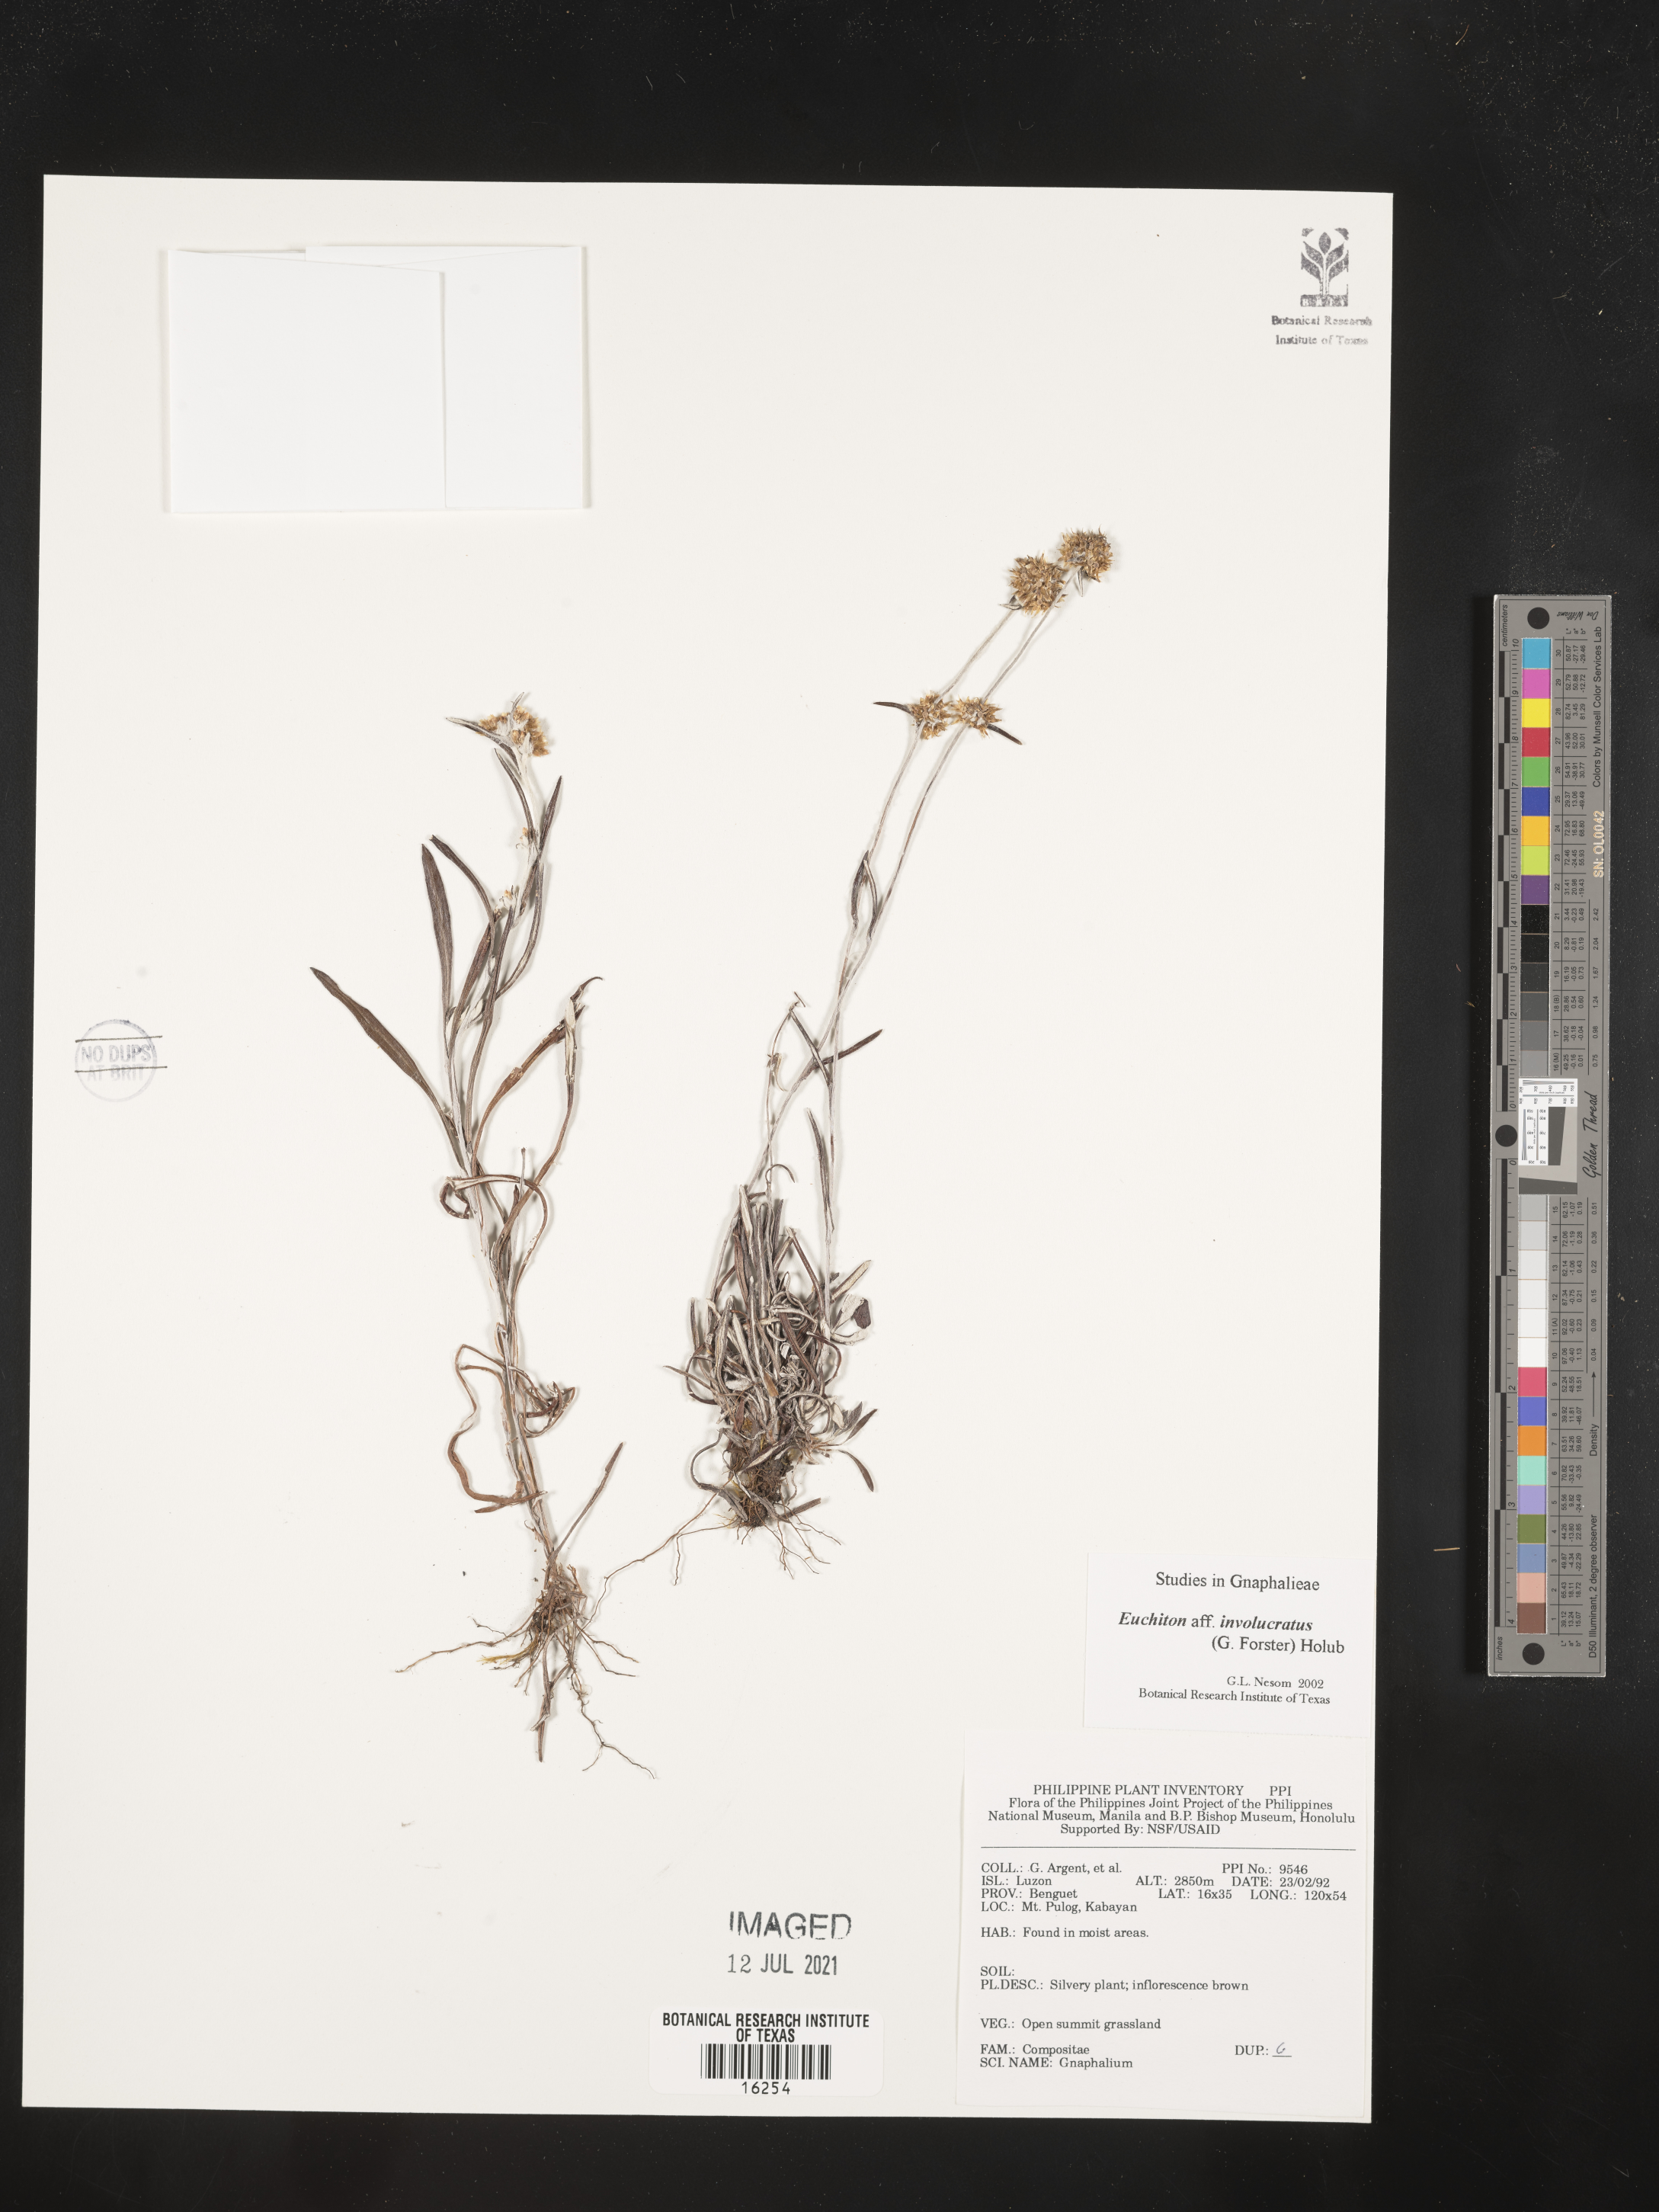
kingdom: Plantae
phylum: Tracheophyta
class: Magnoliopsida
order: Asterales
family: Asteraceae
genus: Gnaphalium
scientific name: Gnaphalium
